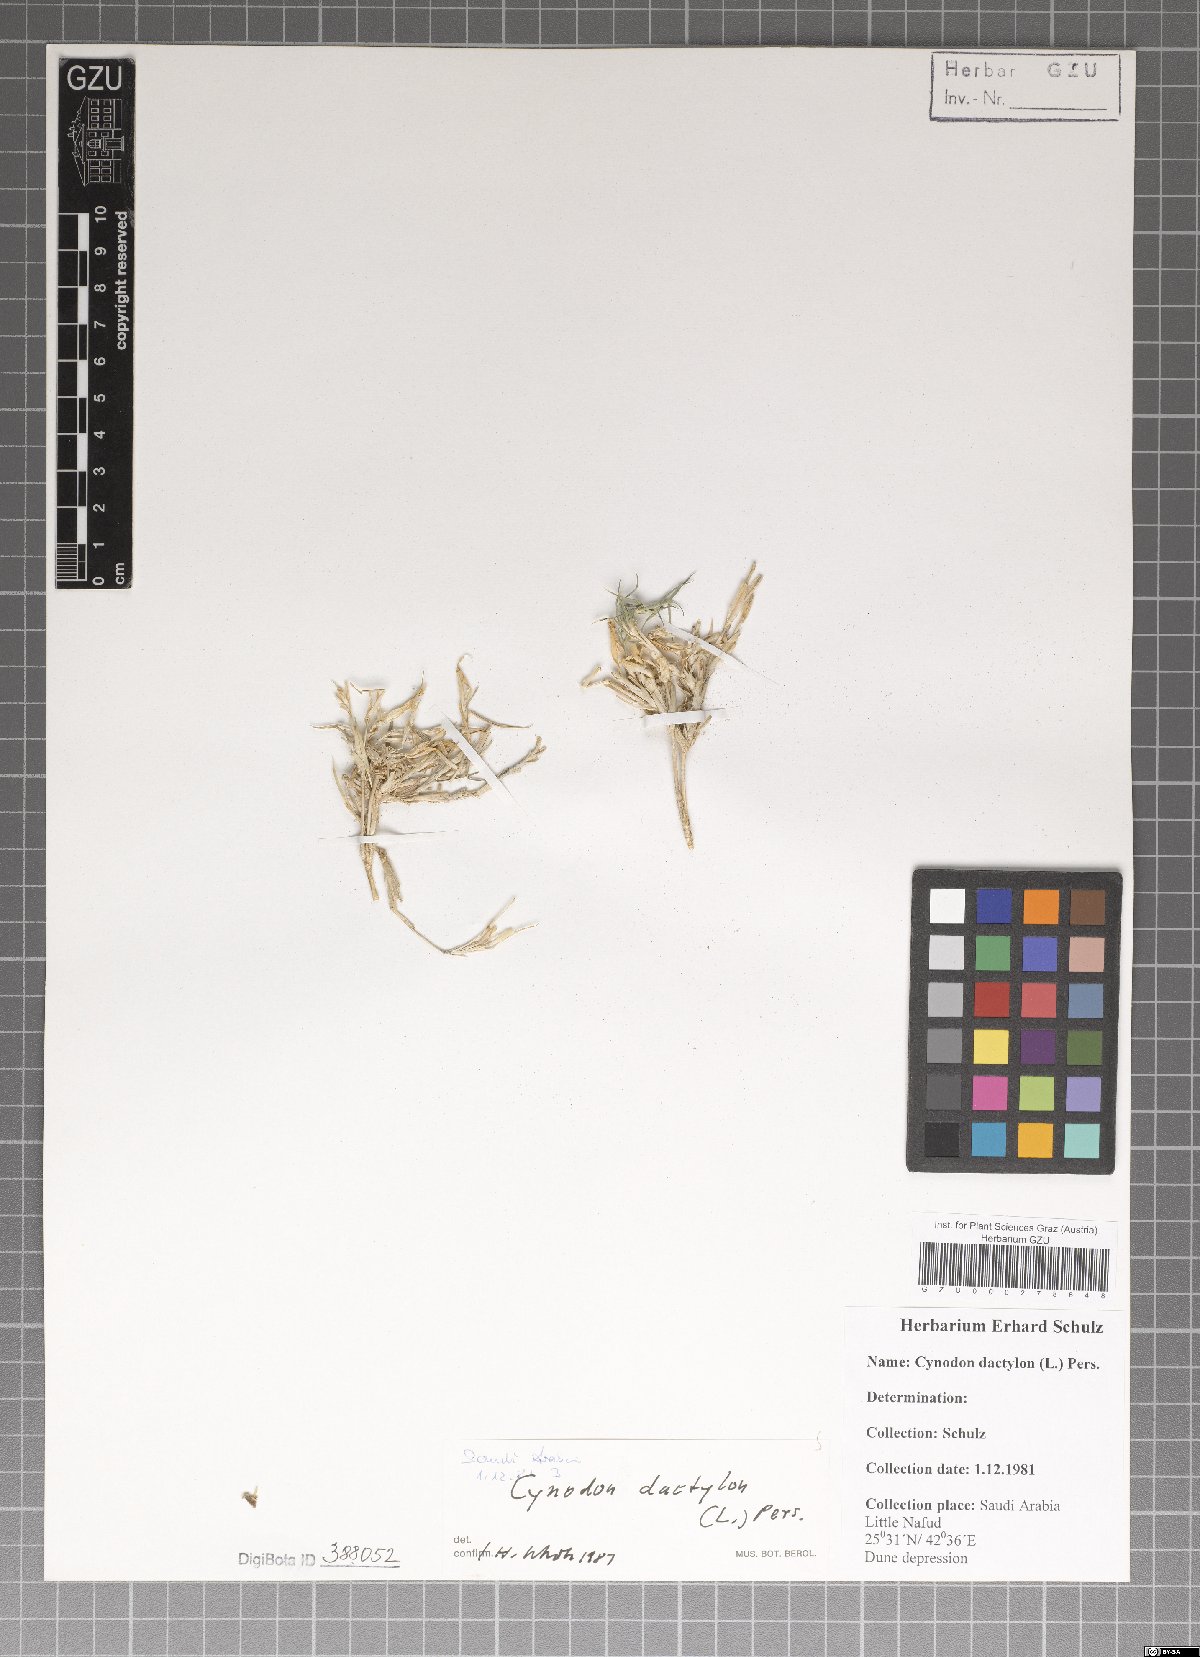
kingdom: Plantae
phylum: Tracheophyta
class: Liliopsida
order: Poales
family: Poaceae
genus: Cynodon
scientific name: Cynodon dactylon
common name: Bermuda grass
